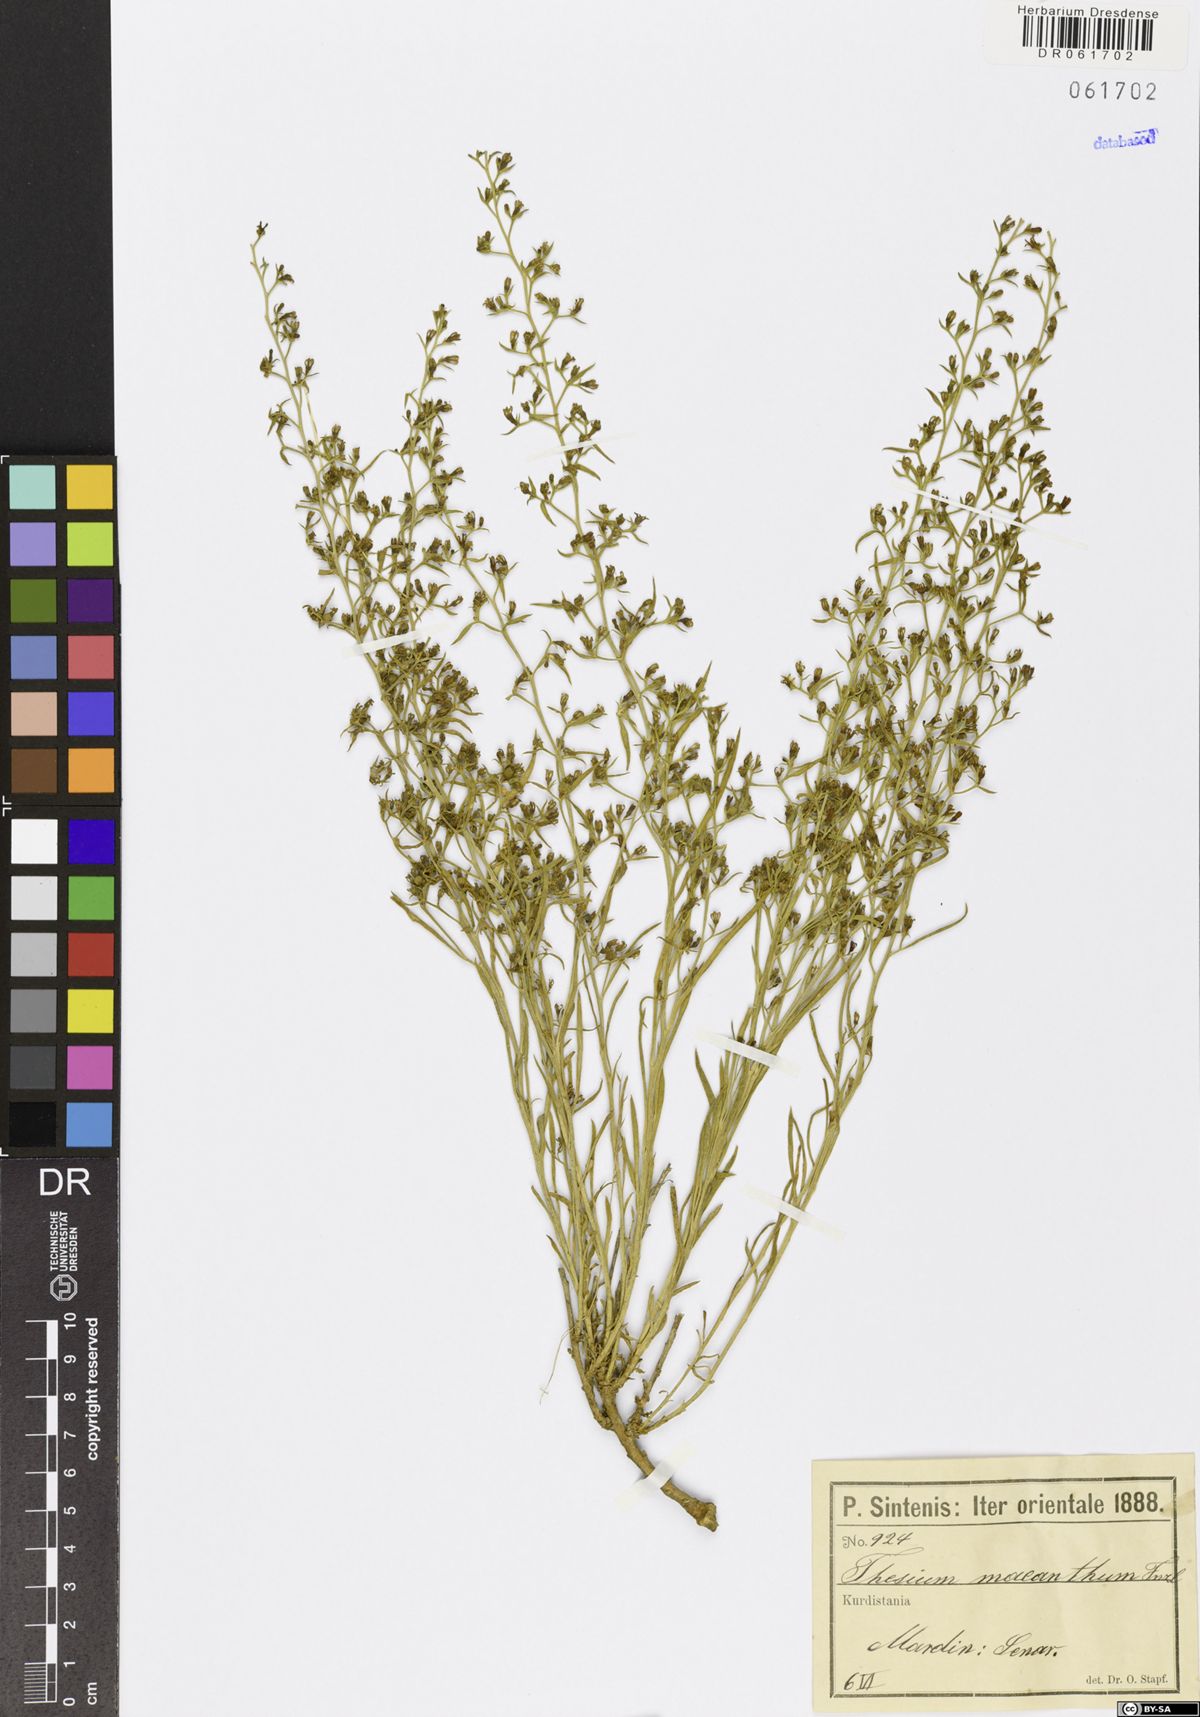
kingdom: Plantae
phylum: Tracheophyta
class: Magnoliopsida
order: Santalales
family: Thesiaceae
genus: Thesium
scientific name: Thesium macranthum
